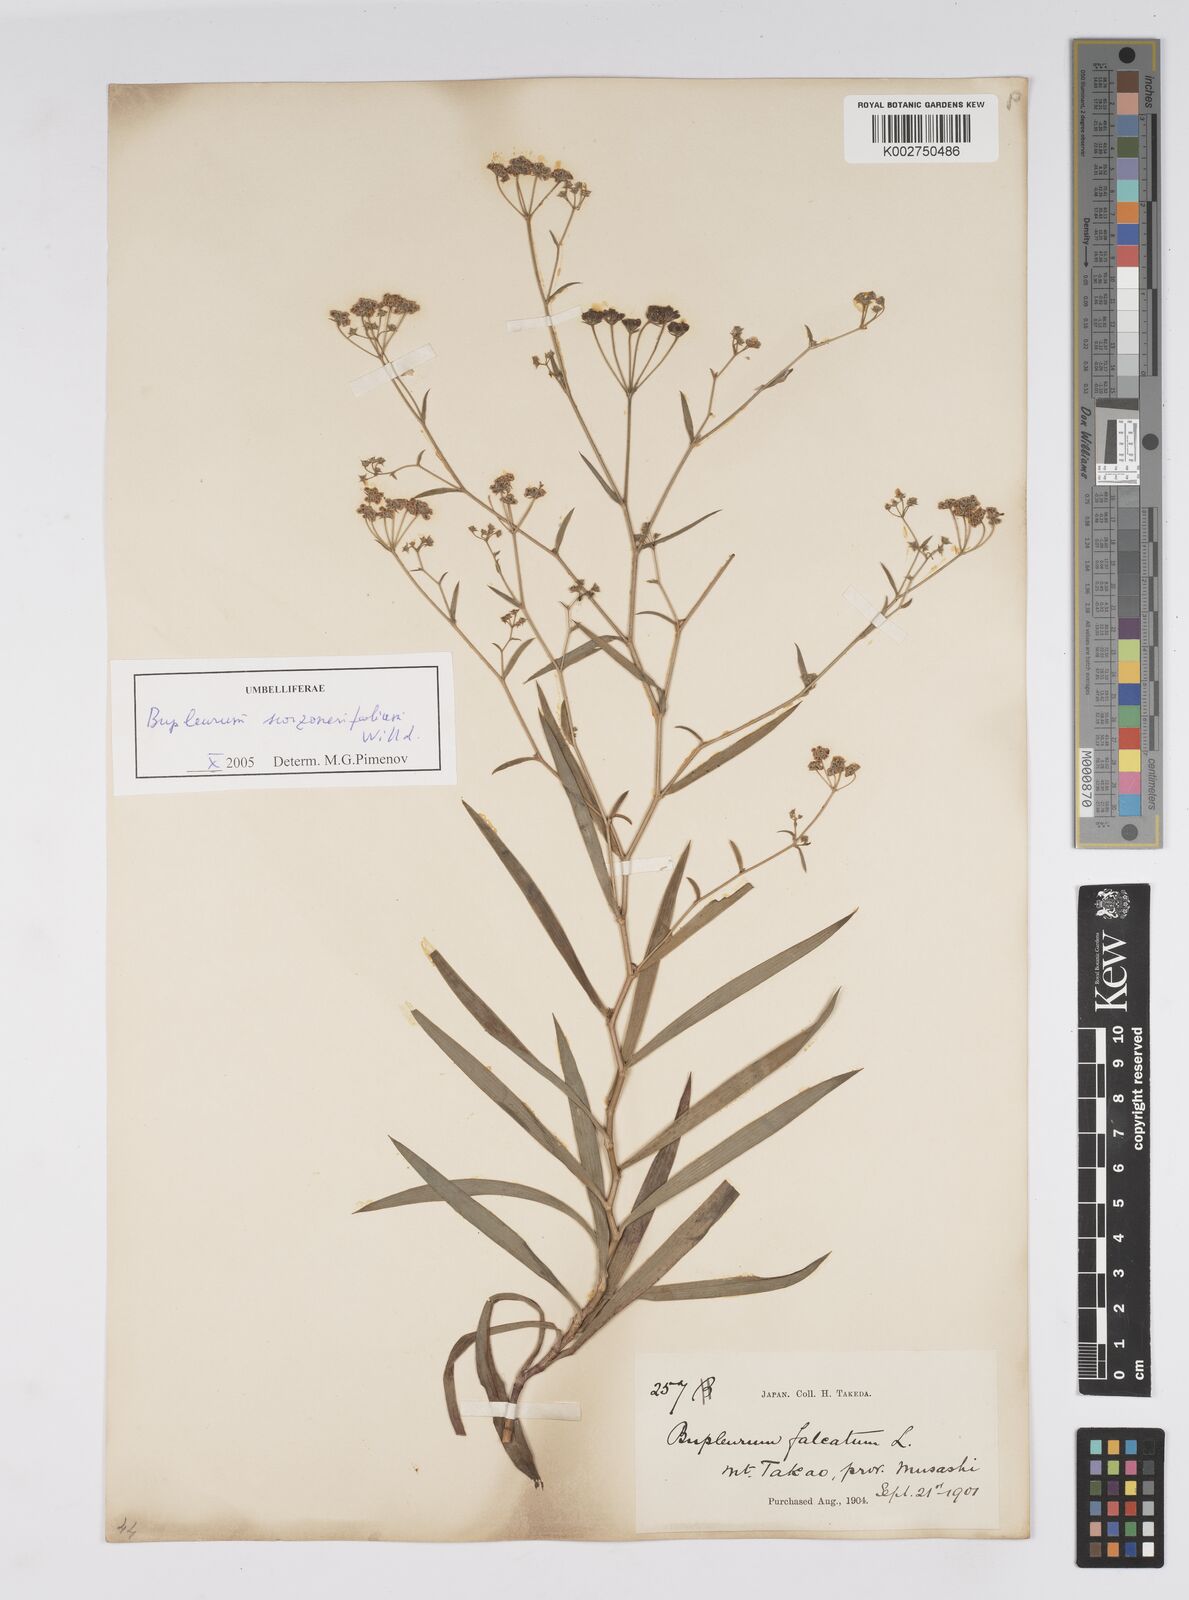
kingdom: Plantae
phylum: Tracheophyta
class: Magnoliopsida
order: Apiales
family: Apiaceae
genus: Bupleurum
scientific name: Bupleurum krylovianum
